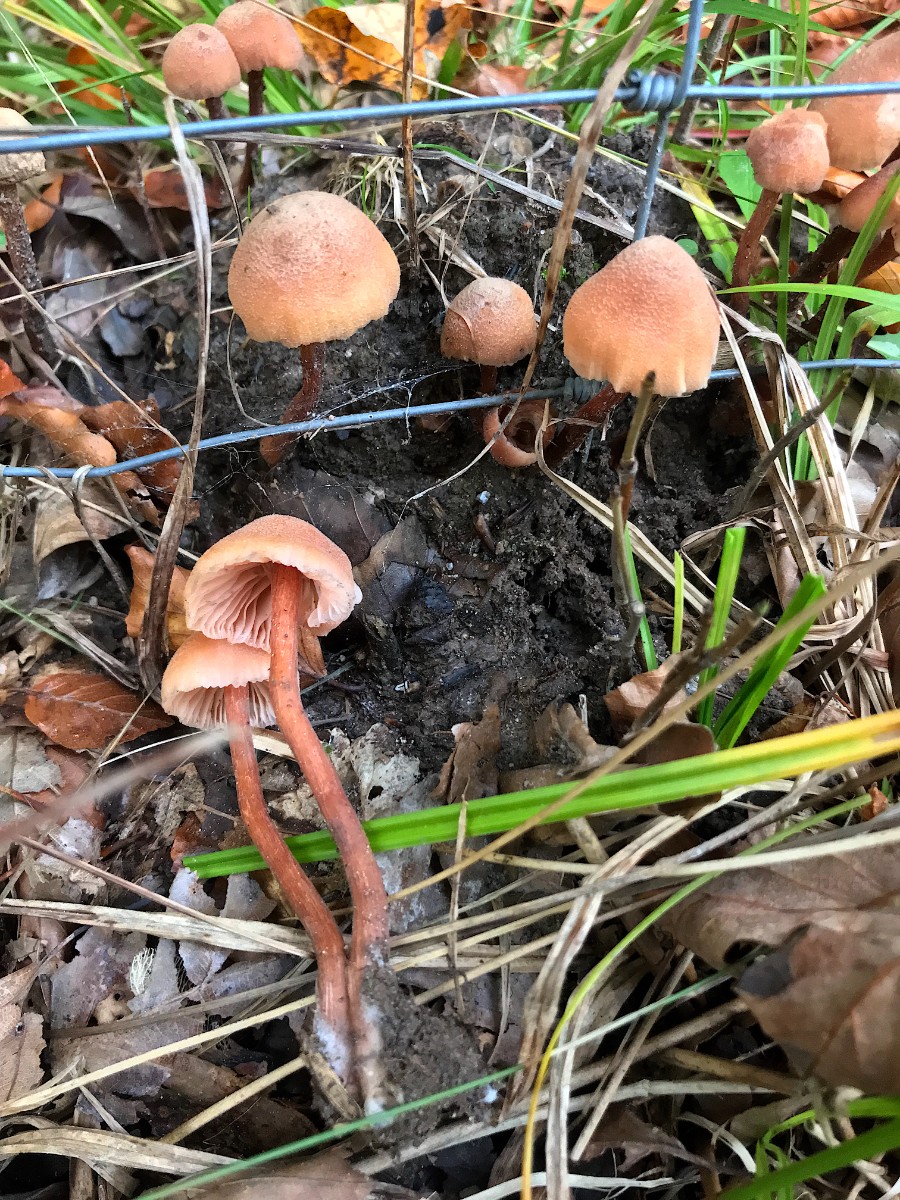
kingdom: Fungi
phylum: Basidiomycota
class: Agaricomycetes
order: Agaricales
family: Hydnangiaceae
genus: Laccaria
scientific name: Laccaria laccata
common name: rød ametysthat
